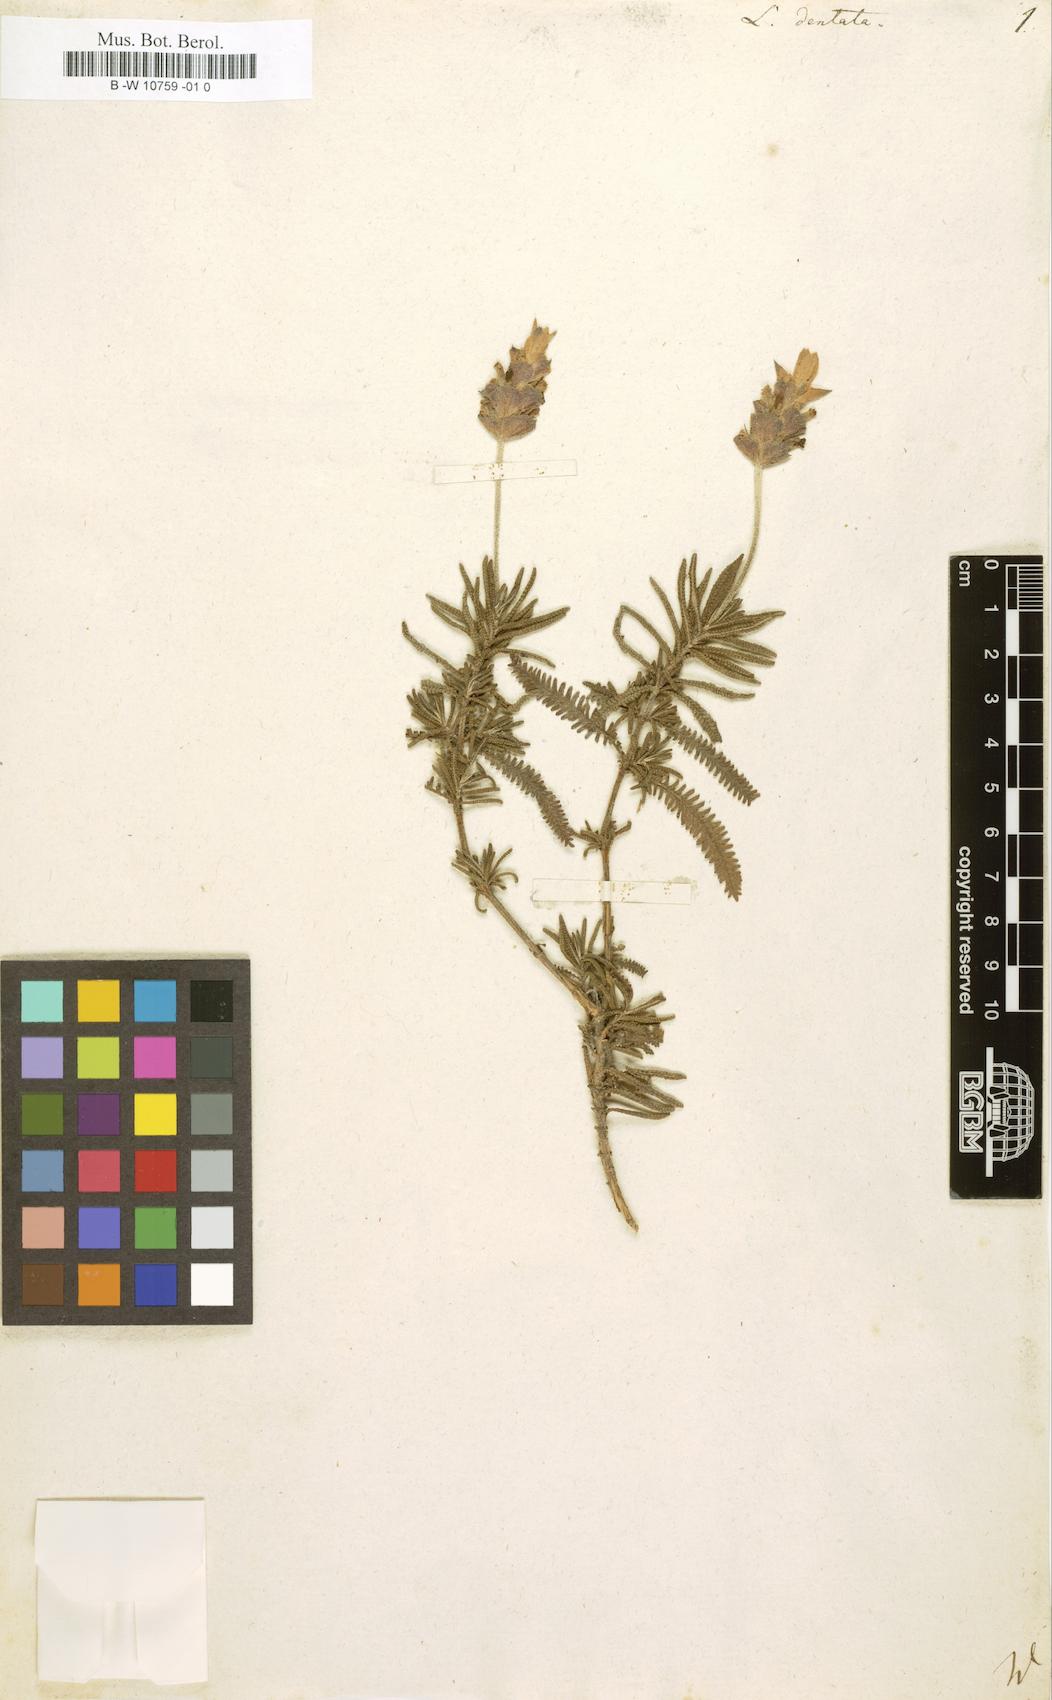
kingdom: Plantae
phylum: Tracheophyta
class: Magnoliopsida
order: Lamiales
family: Lamiaceae
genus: Lavandula
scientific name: Lavandula dentata
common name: French lavender
